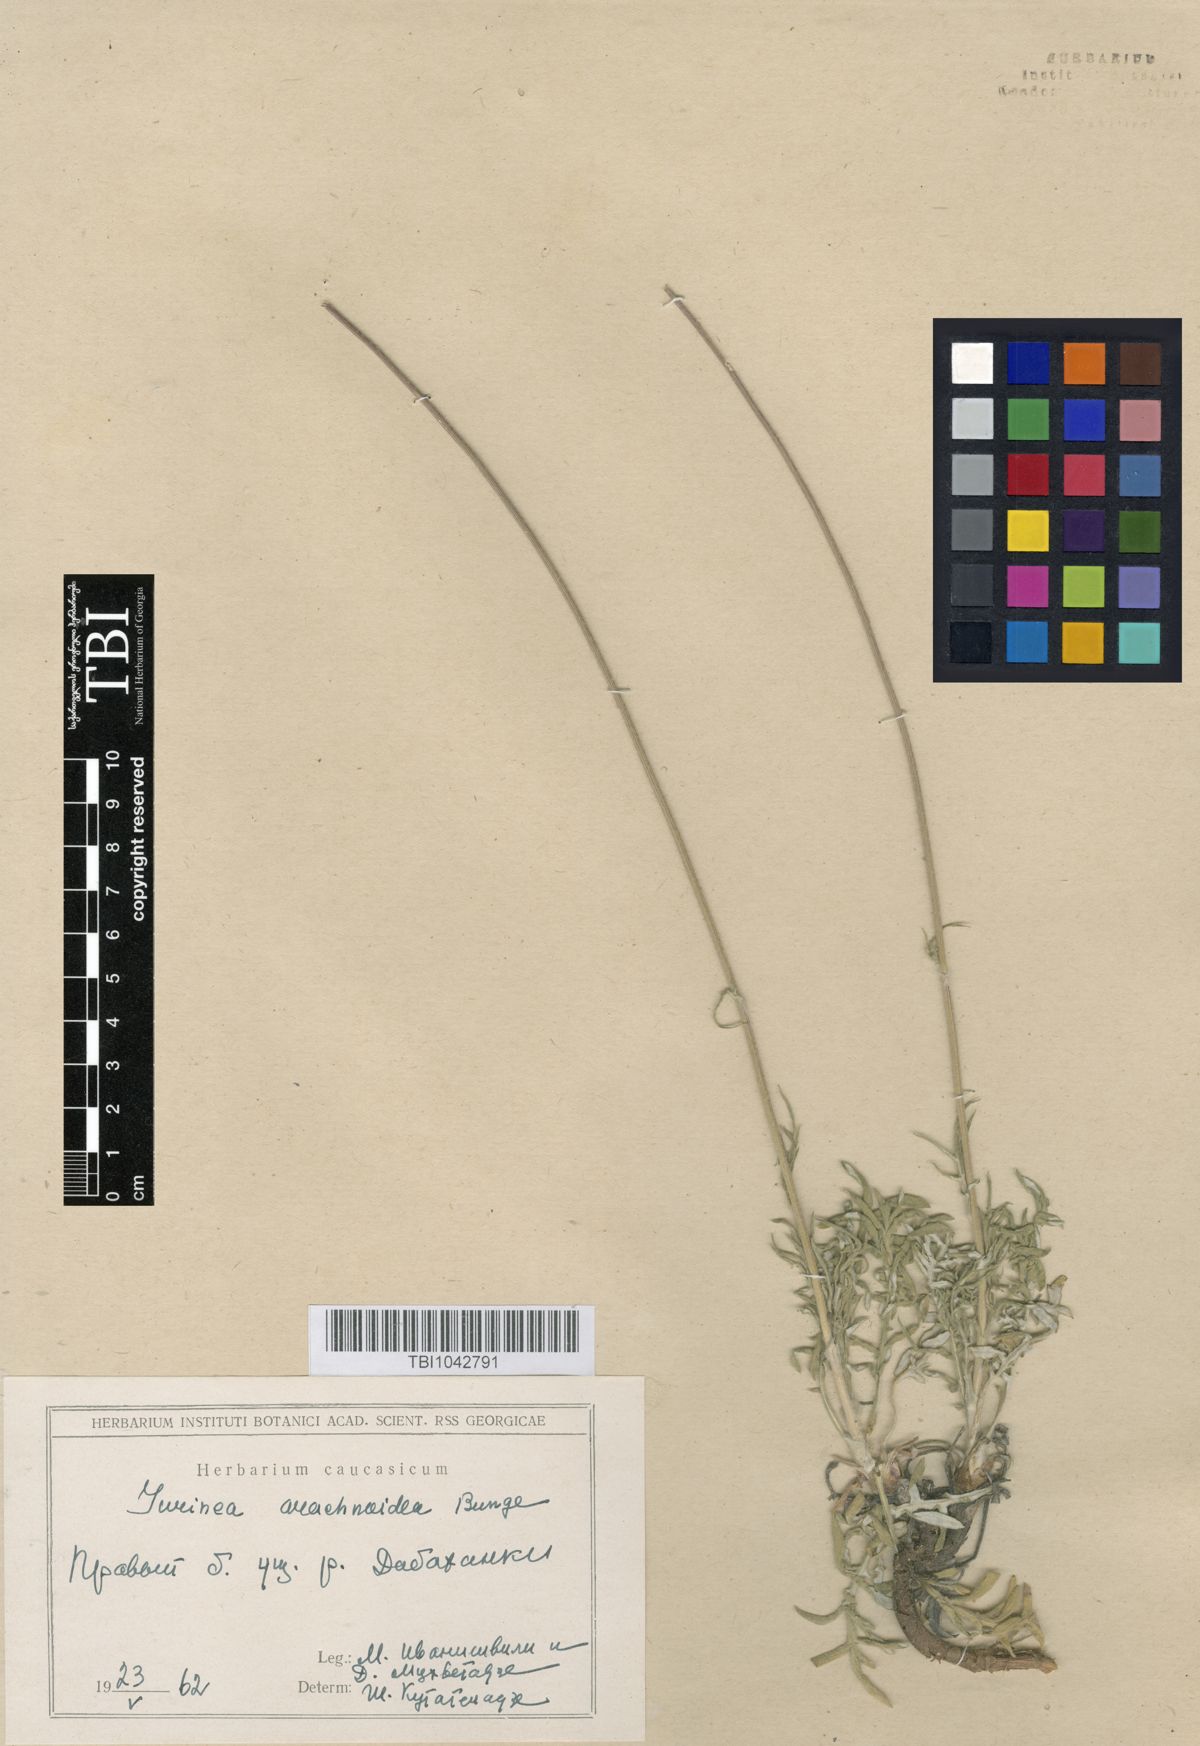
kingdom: Plantae
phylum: Tracheophyta
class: Magnoliopsida
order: Asterales
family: Asteraceae
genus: Jurinea
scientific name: Jurinea blanda
